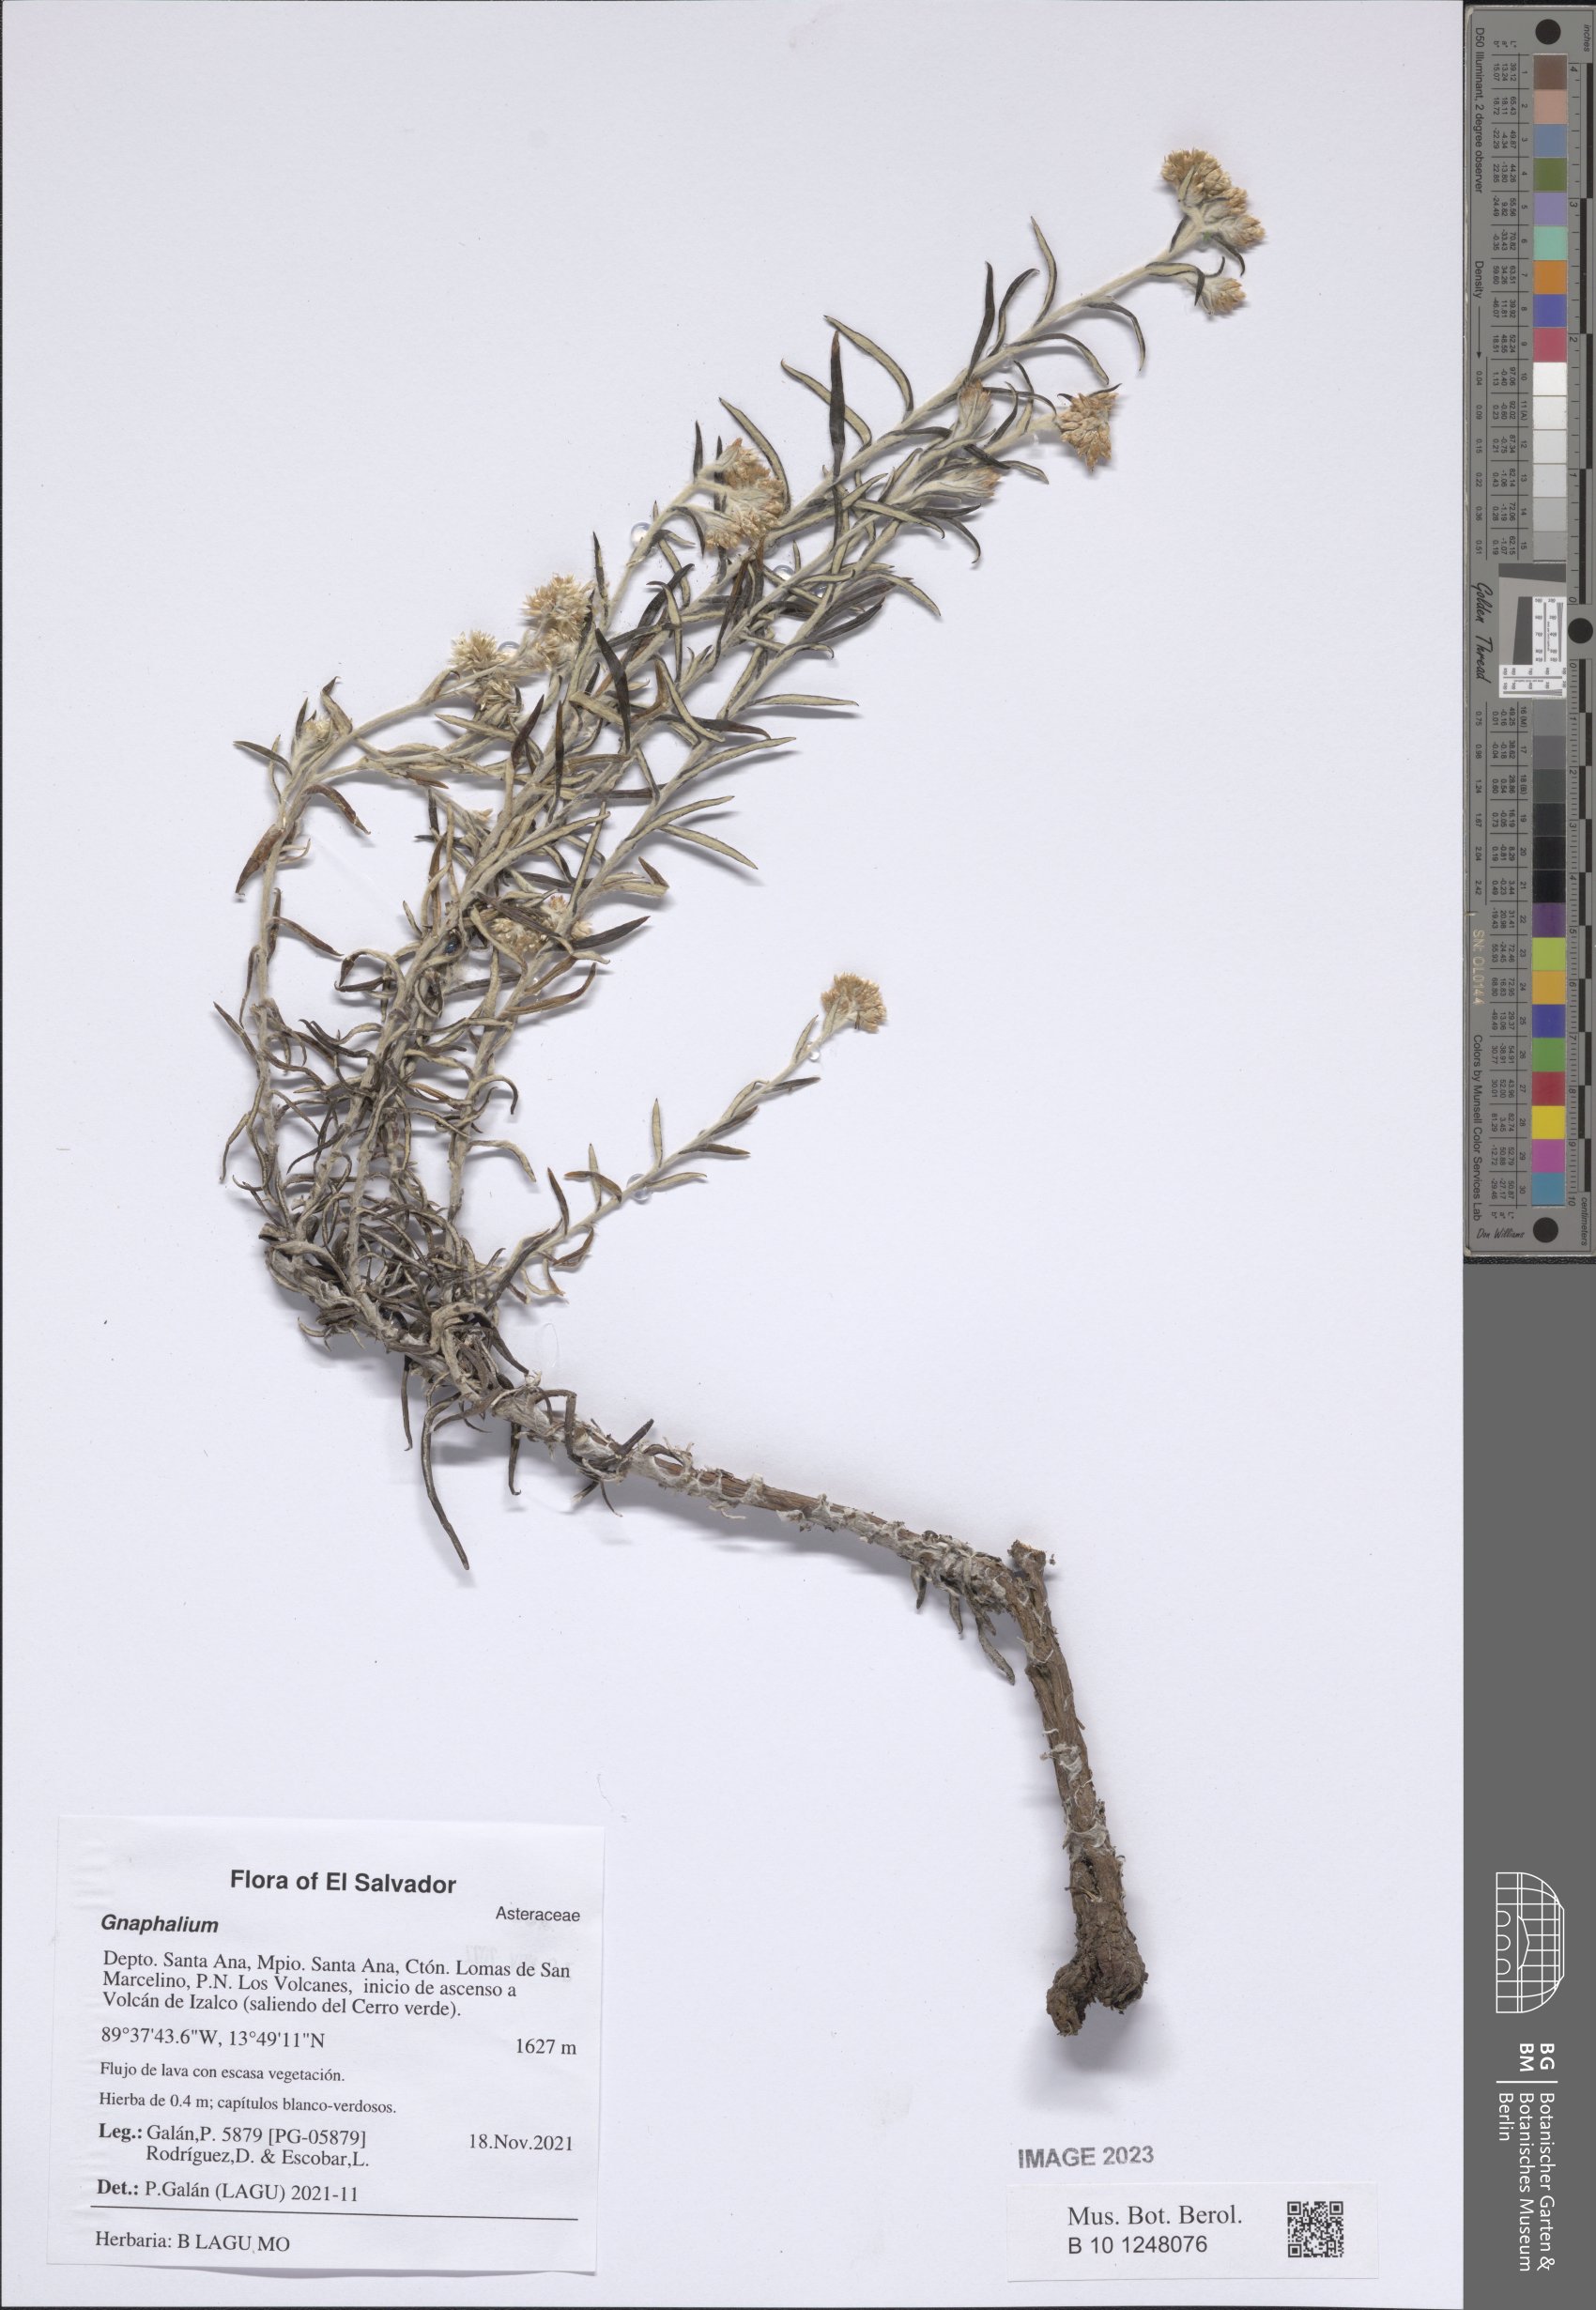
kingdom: Plantae
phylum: Tracheophyta
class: Magnoliopsida
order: Asterales
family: Asteraceae
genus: Gnaphalium
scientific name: Gnaphalium
